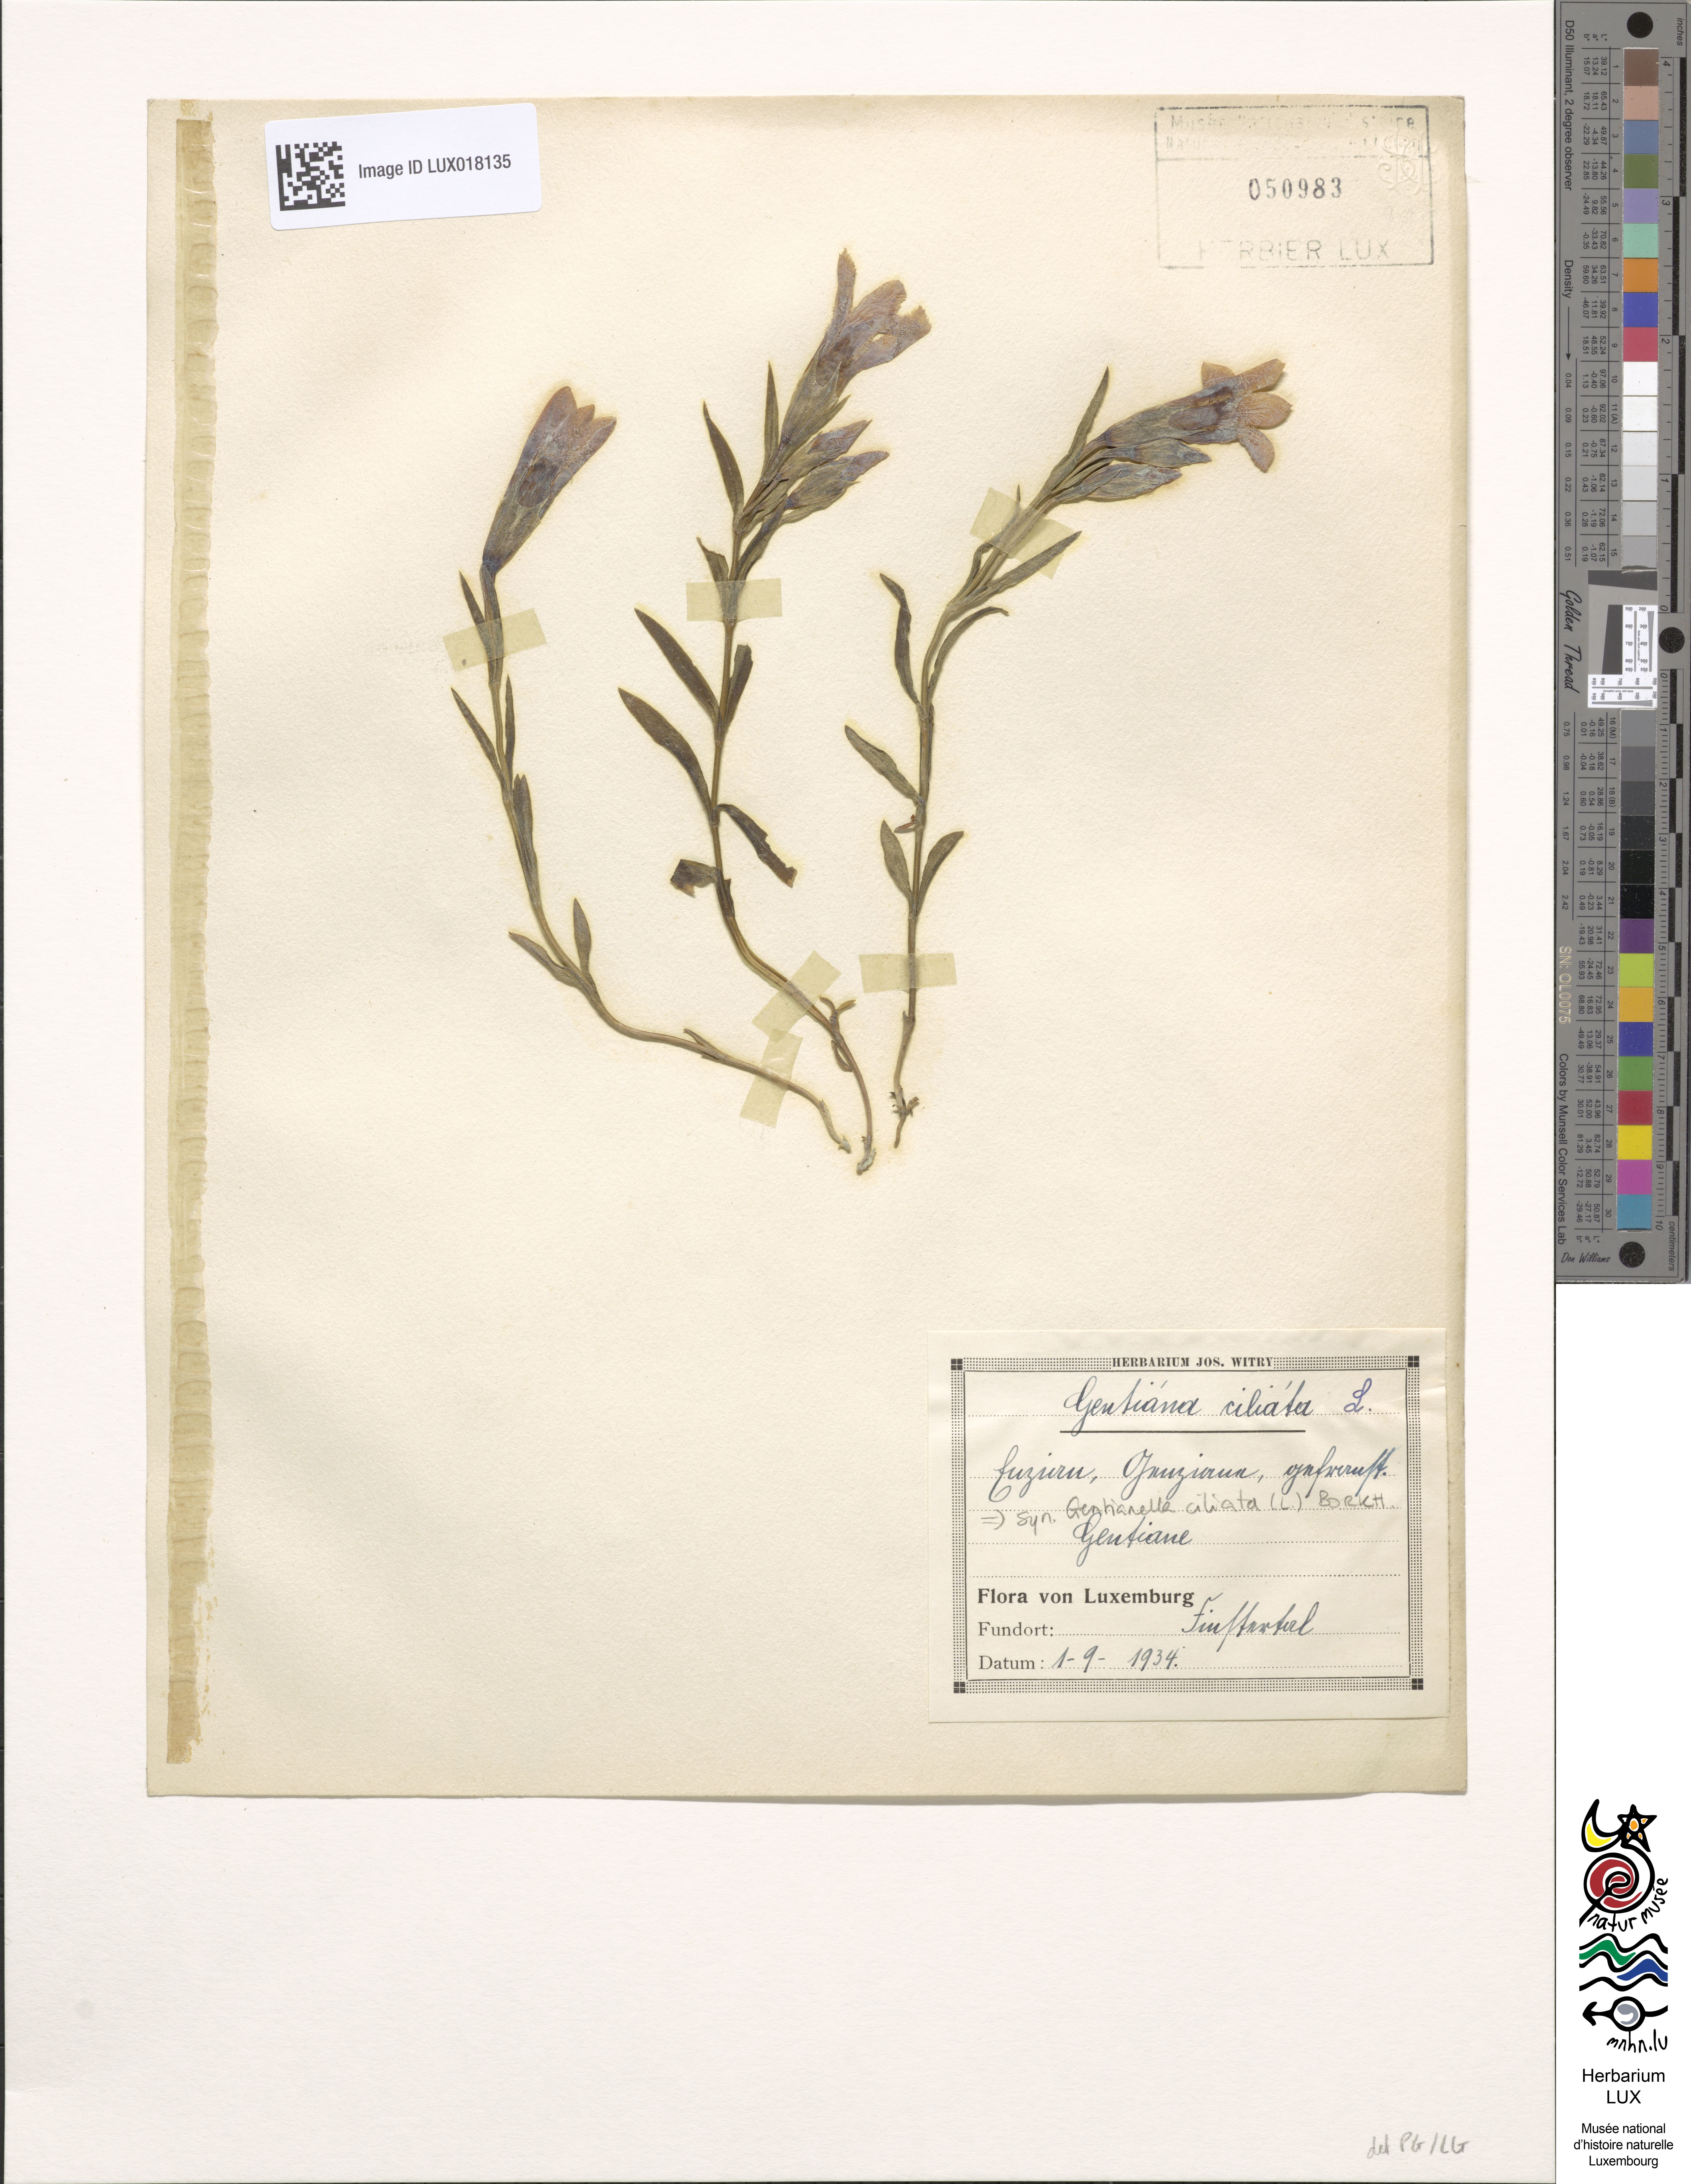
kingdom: Plantae
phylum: Tracheophyta
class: Magnoliopsida
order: Gentianales
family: Gentianaceae
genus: Gentianopsis
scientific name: Gentianopsis ciliata
